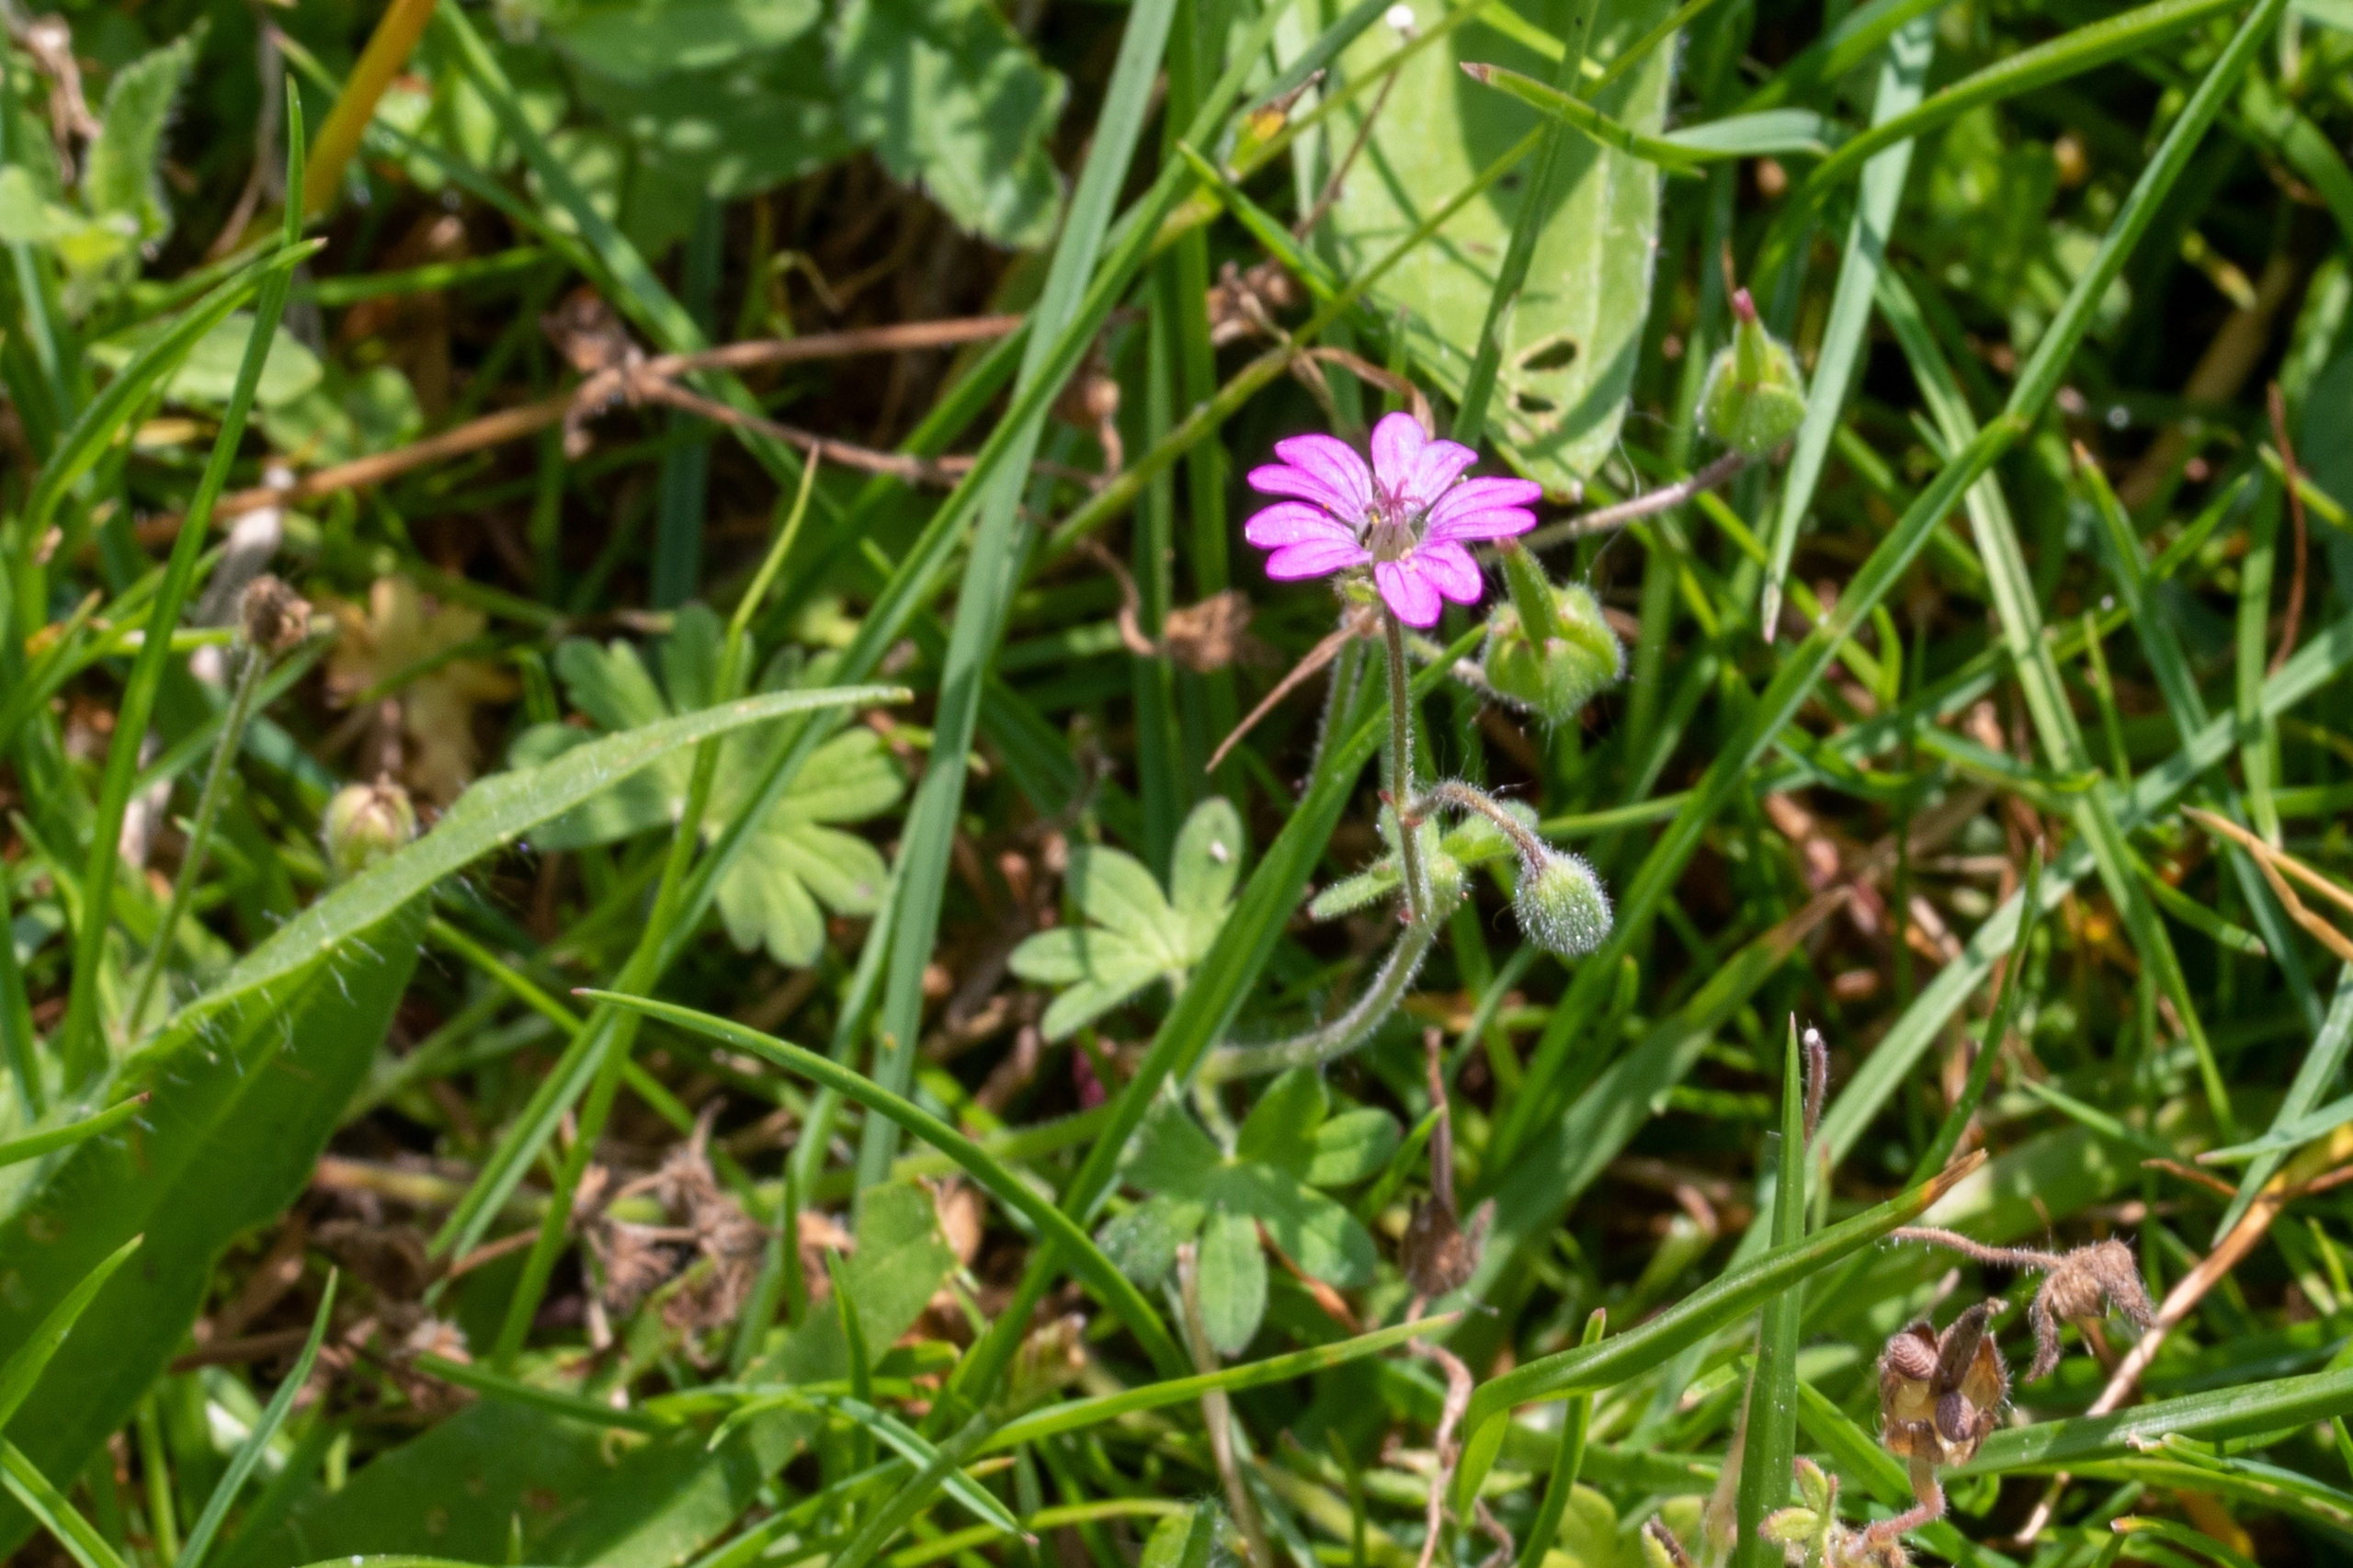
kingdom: Plantae
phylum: Tracheophyta
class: Magnoliopsida
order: Geraniales
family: Geraniaceae
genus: Geranium
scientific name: Geranium pusillum
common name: Liden storkenæb
